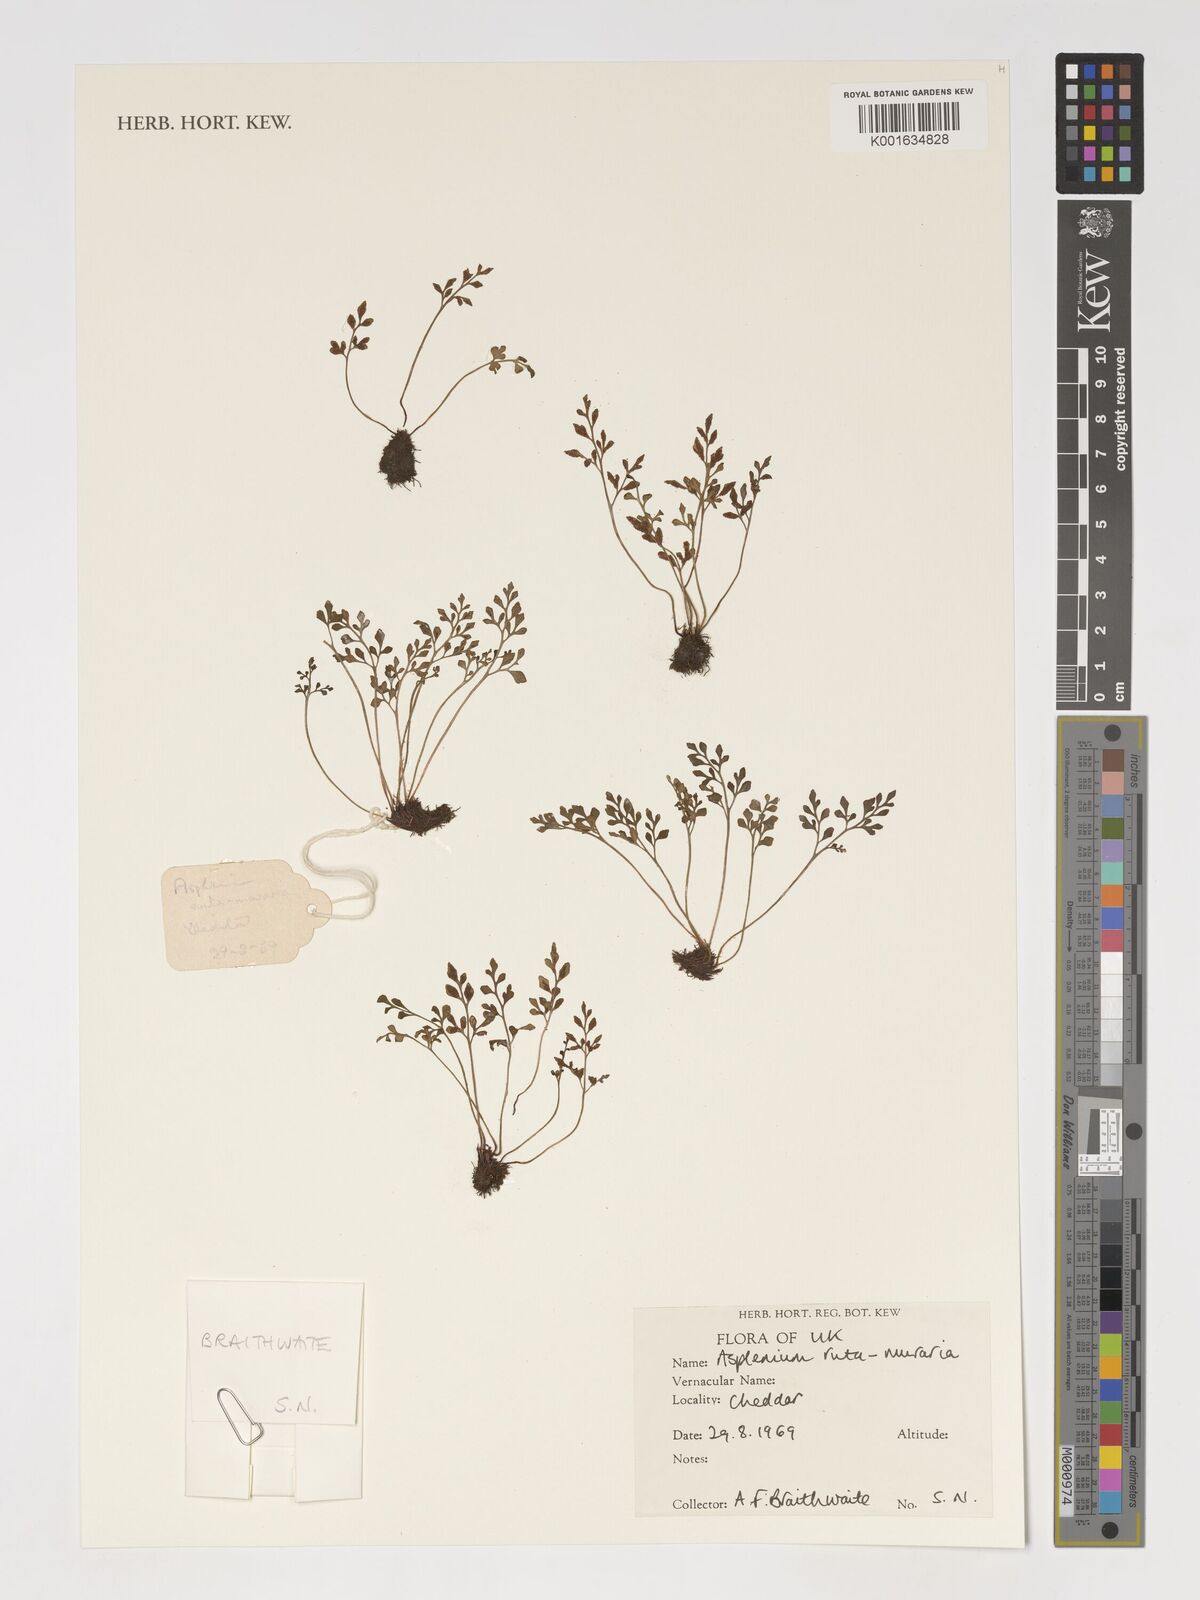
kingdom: Plantae
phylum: Tracheophyta
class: Polypodiopsida
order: Polypodiales
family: Aspleniaceae
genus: Asplenium
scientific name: Asplenium ruta-muraria
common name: Wall-rue
